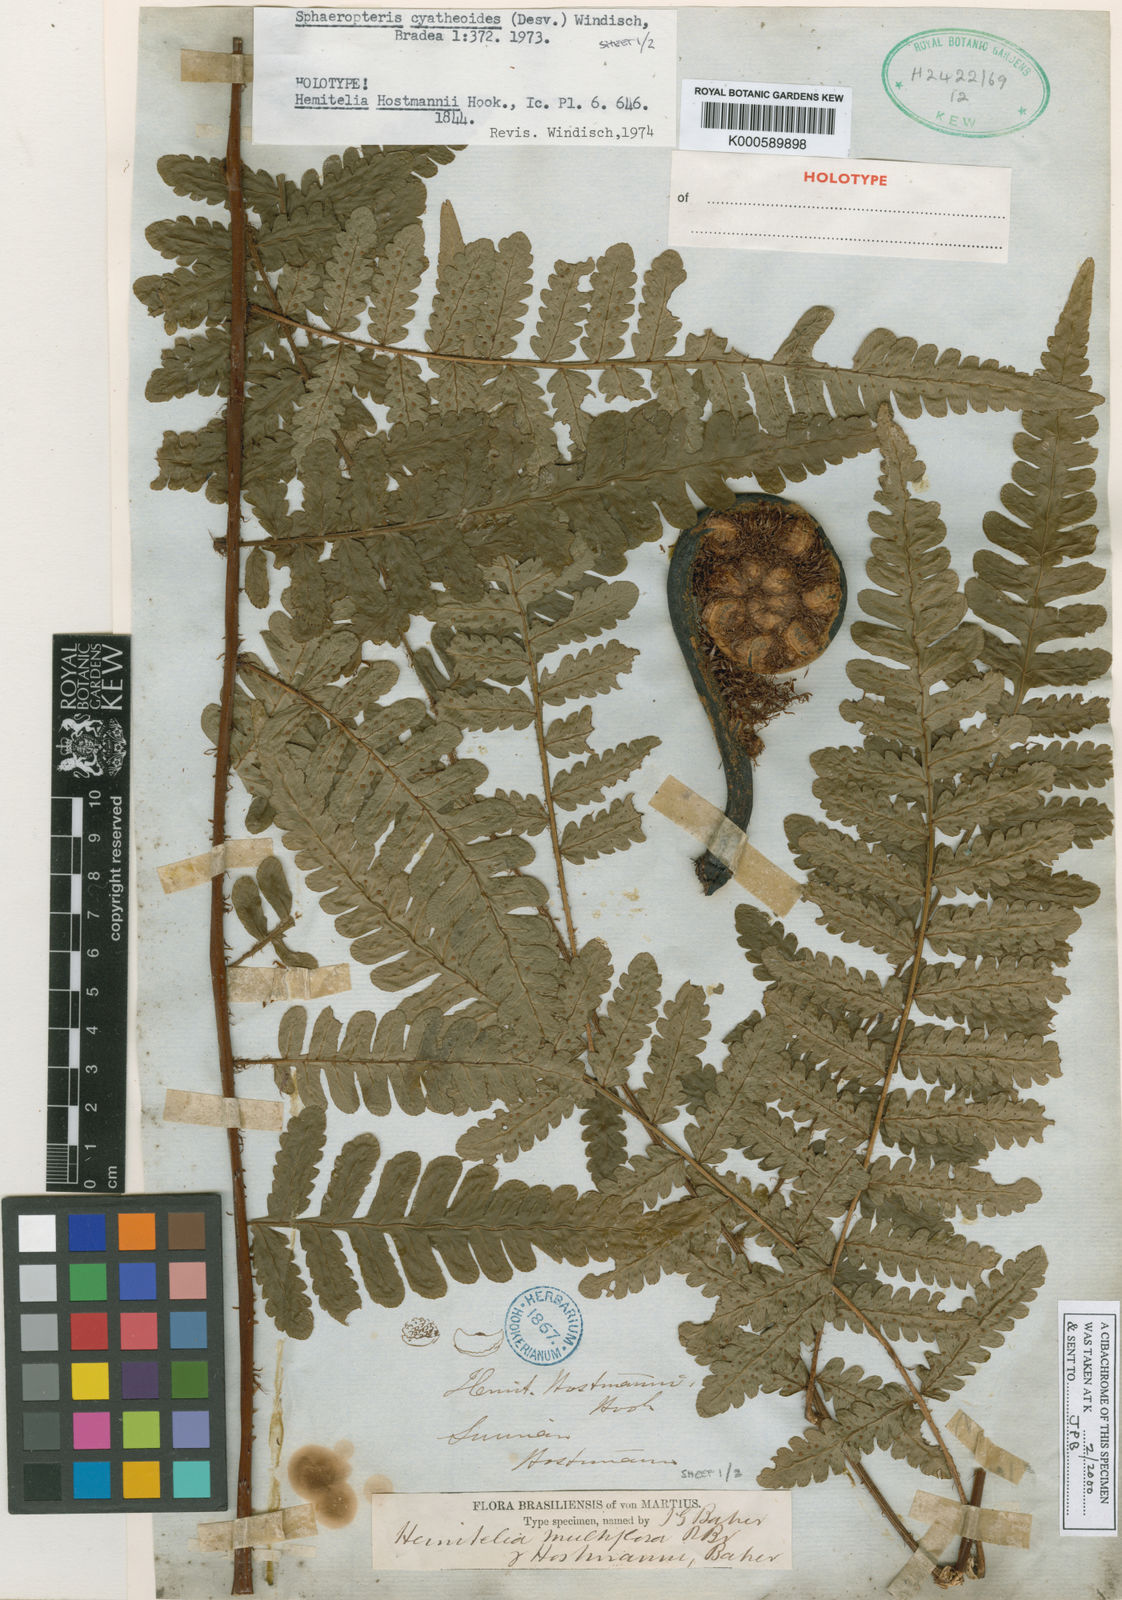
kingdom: Plantae
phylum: Tracheophyta
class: Polypodiopsida
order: Cyatheales
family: Cyatheaceae
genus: Cyathea
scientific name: Cyathea surinamensis
